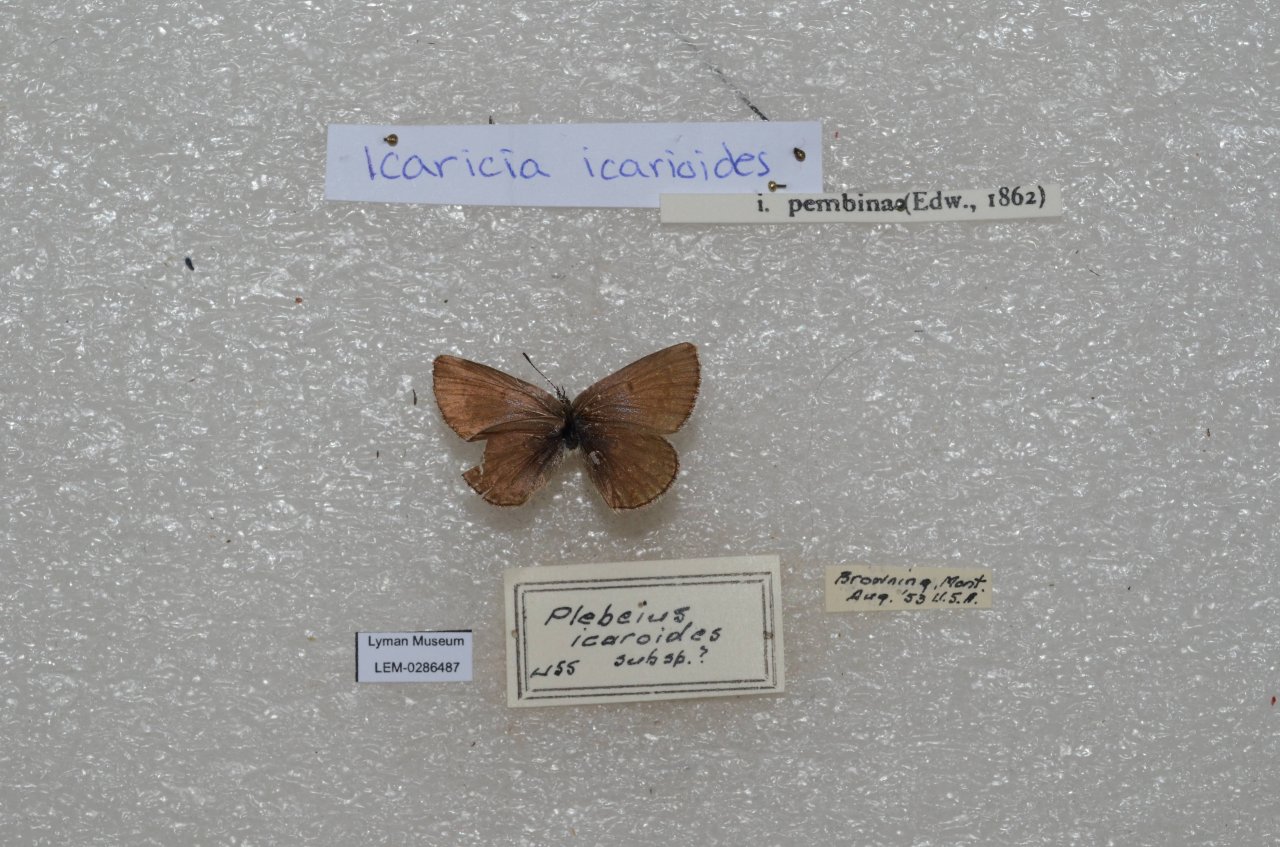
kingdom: Animalia
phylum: Arthropoda
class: Insecta
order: Lepidoptera
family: Lycaenidae
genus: Icaricia
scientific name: Icaricia icarioides
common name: Boisduval's Blue
